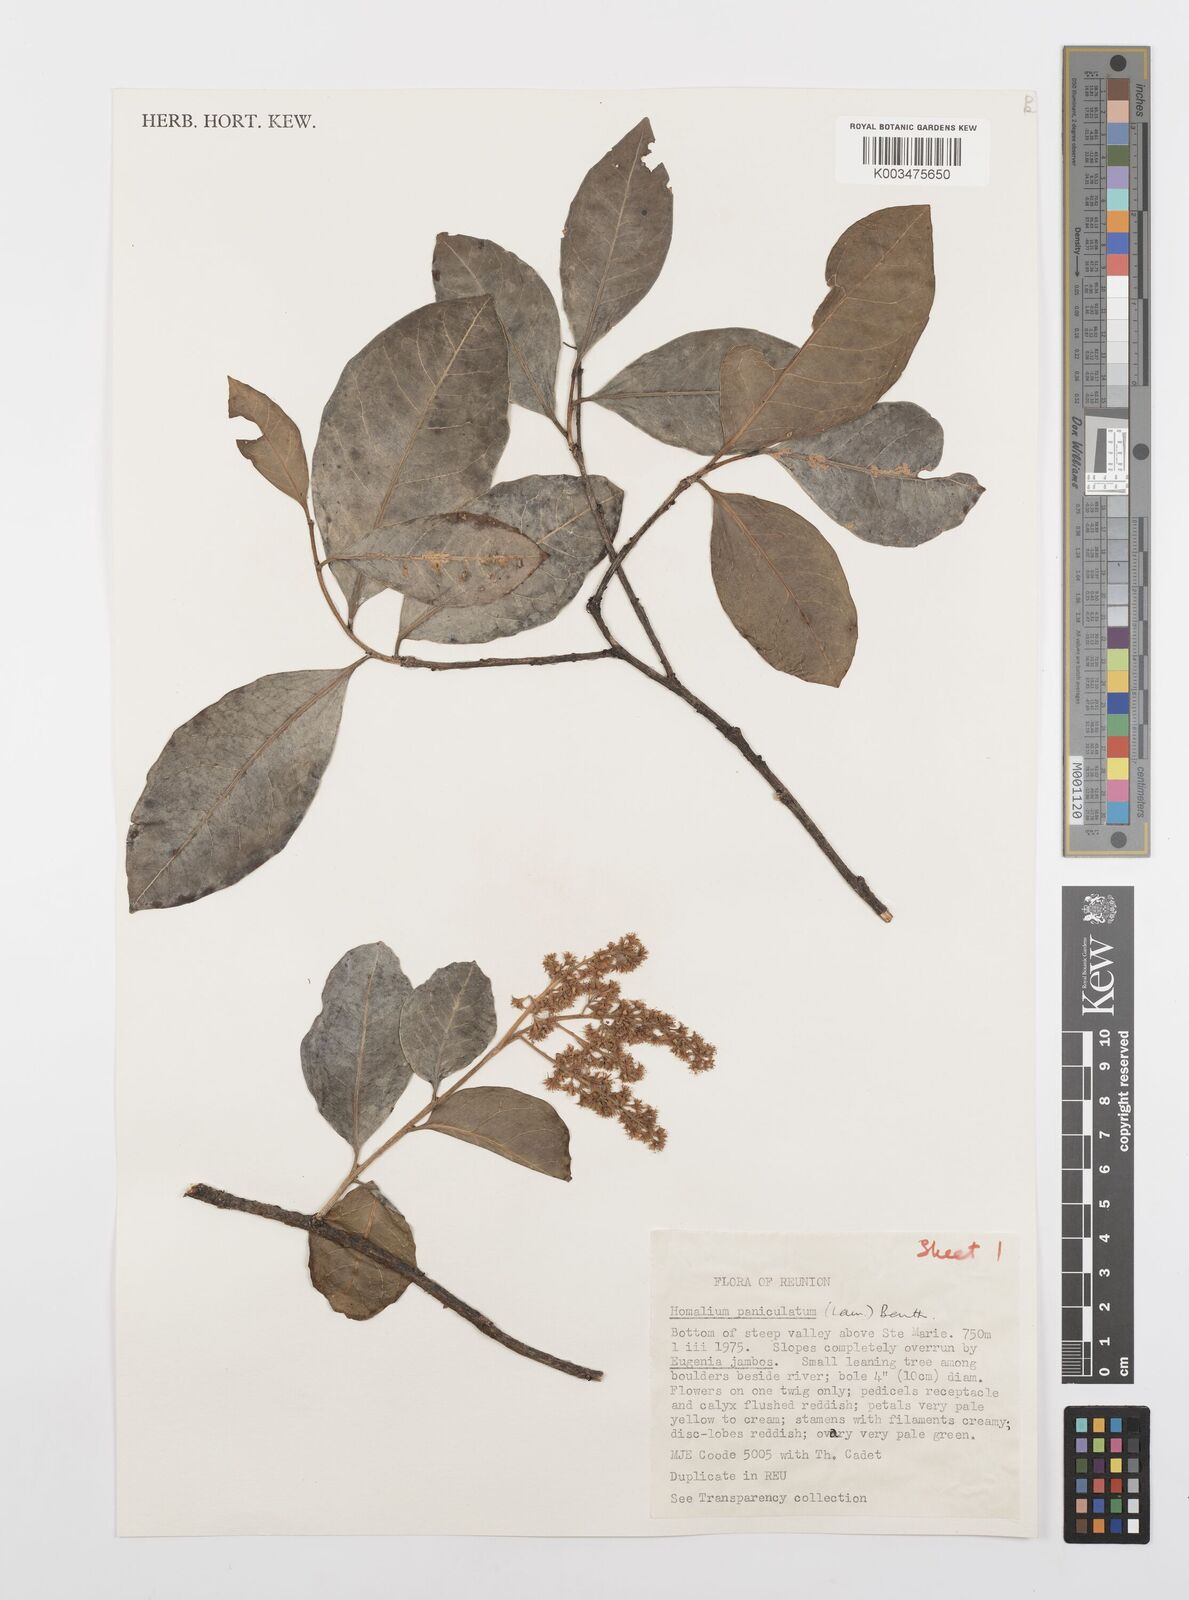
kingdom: Plantae
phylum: Tracheophyta
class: Magnoliopsida
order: Malpighiales
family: Salicaceae
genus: Homalium
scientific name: Homalium erianthum
